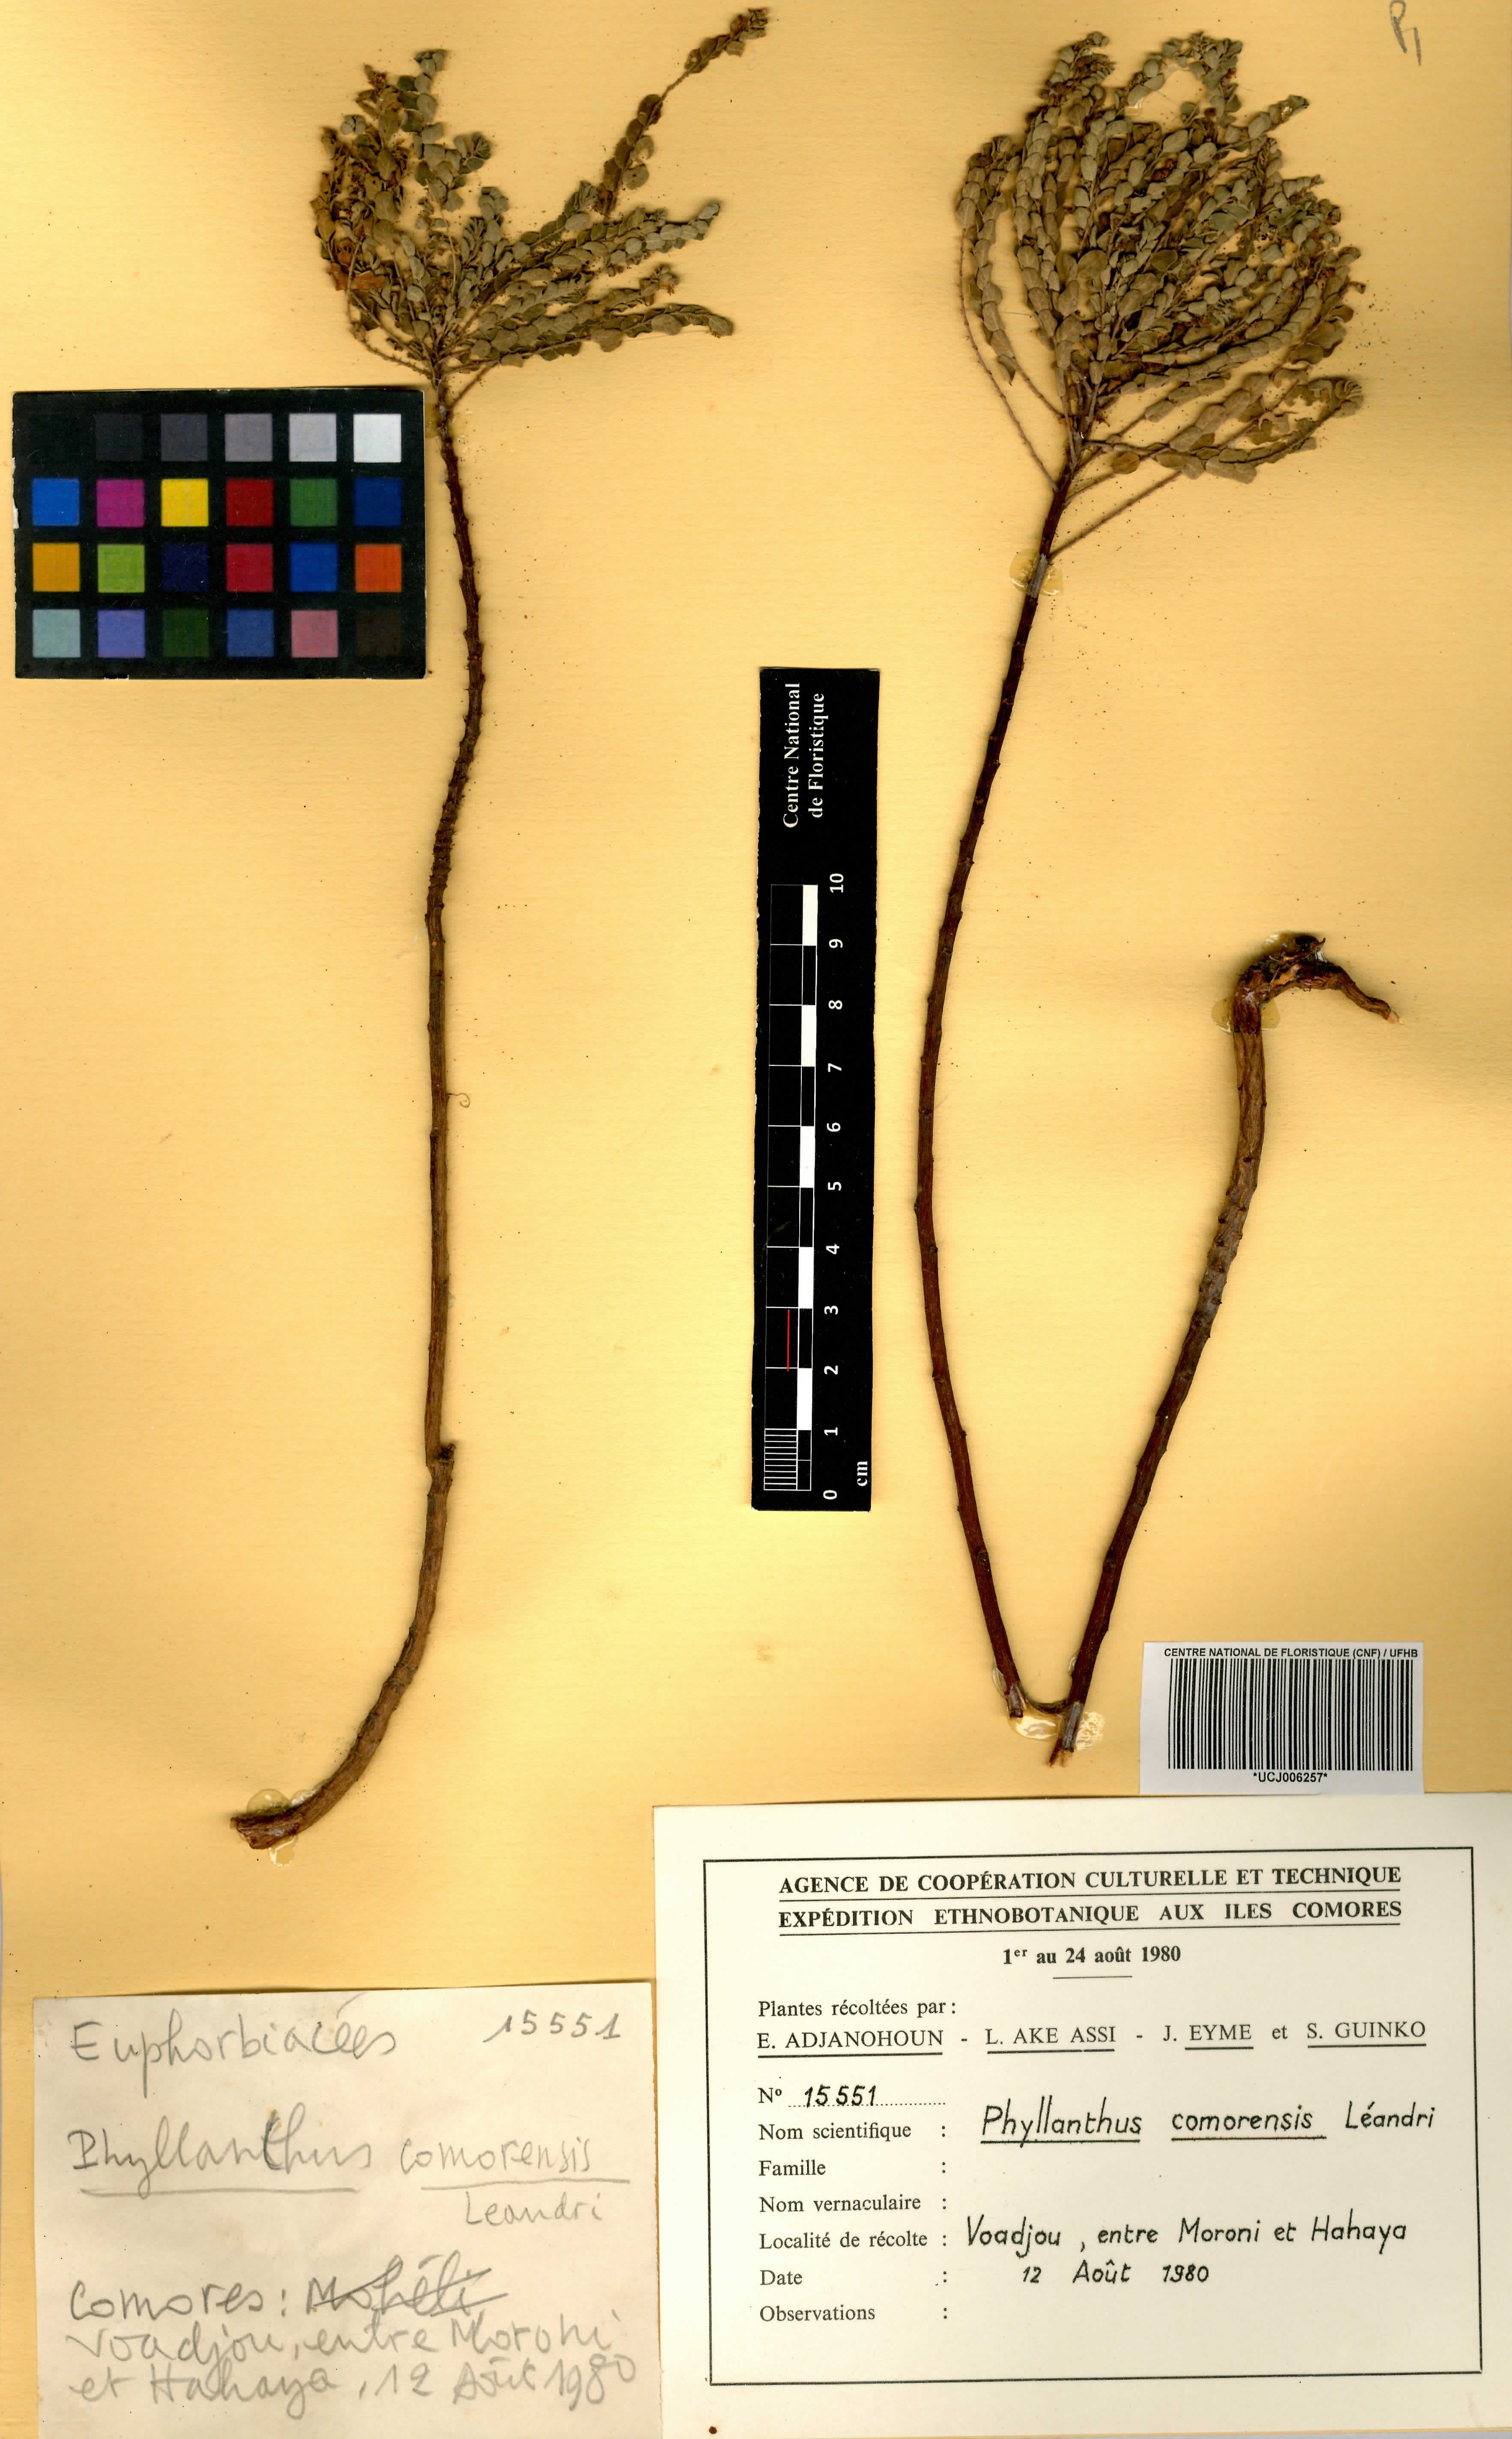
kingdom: Plantae
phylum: Tracheophyta
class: Magnoliopsida
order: Malpighiales
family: Phyllanthaceae
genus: Phyllanthus
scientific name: Phyllanthus comorensis
